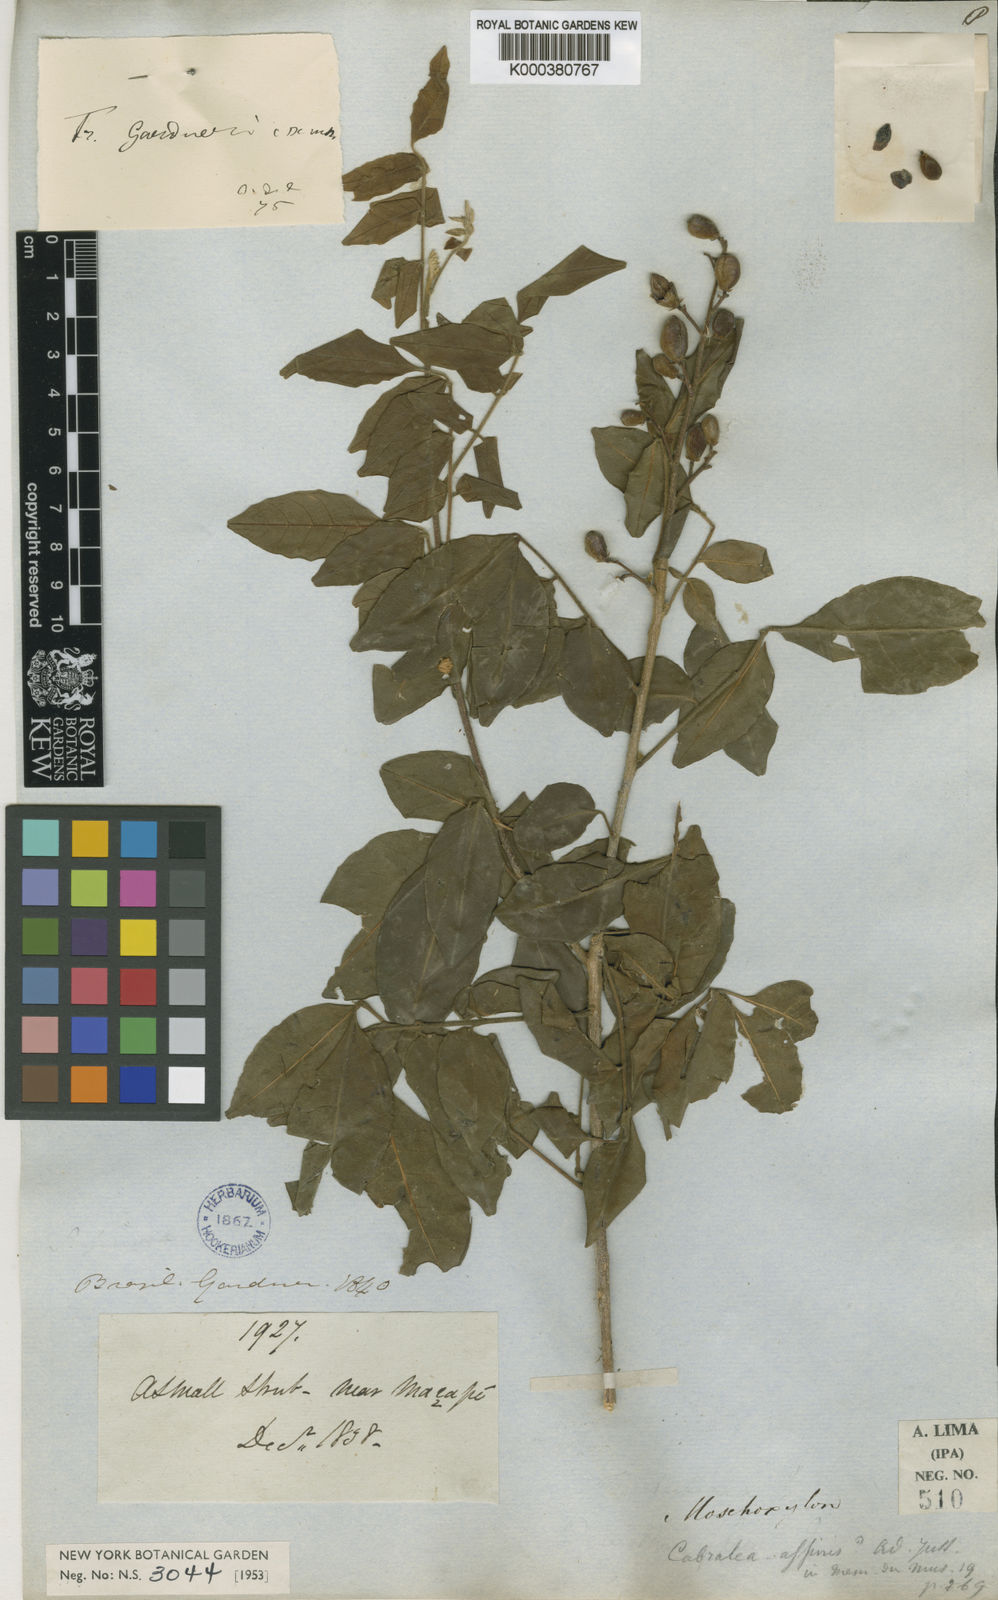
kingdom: Plantae
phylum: Tracheophyta
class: Magnoliopsida
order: Sapindales
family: Meliaceae
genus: Trichilia
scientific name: Trichilia elegans
